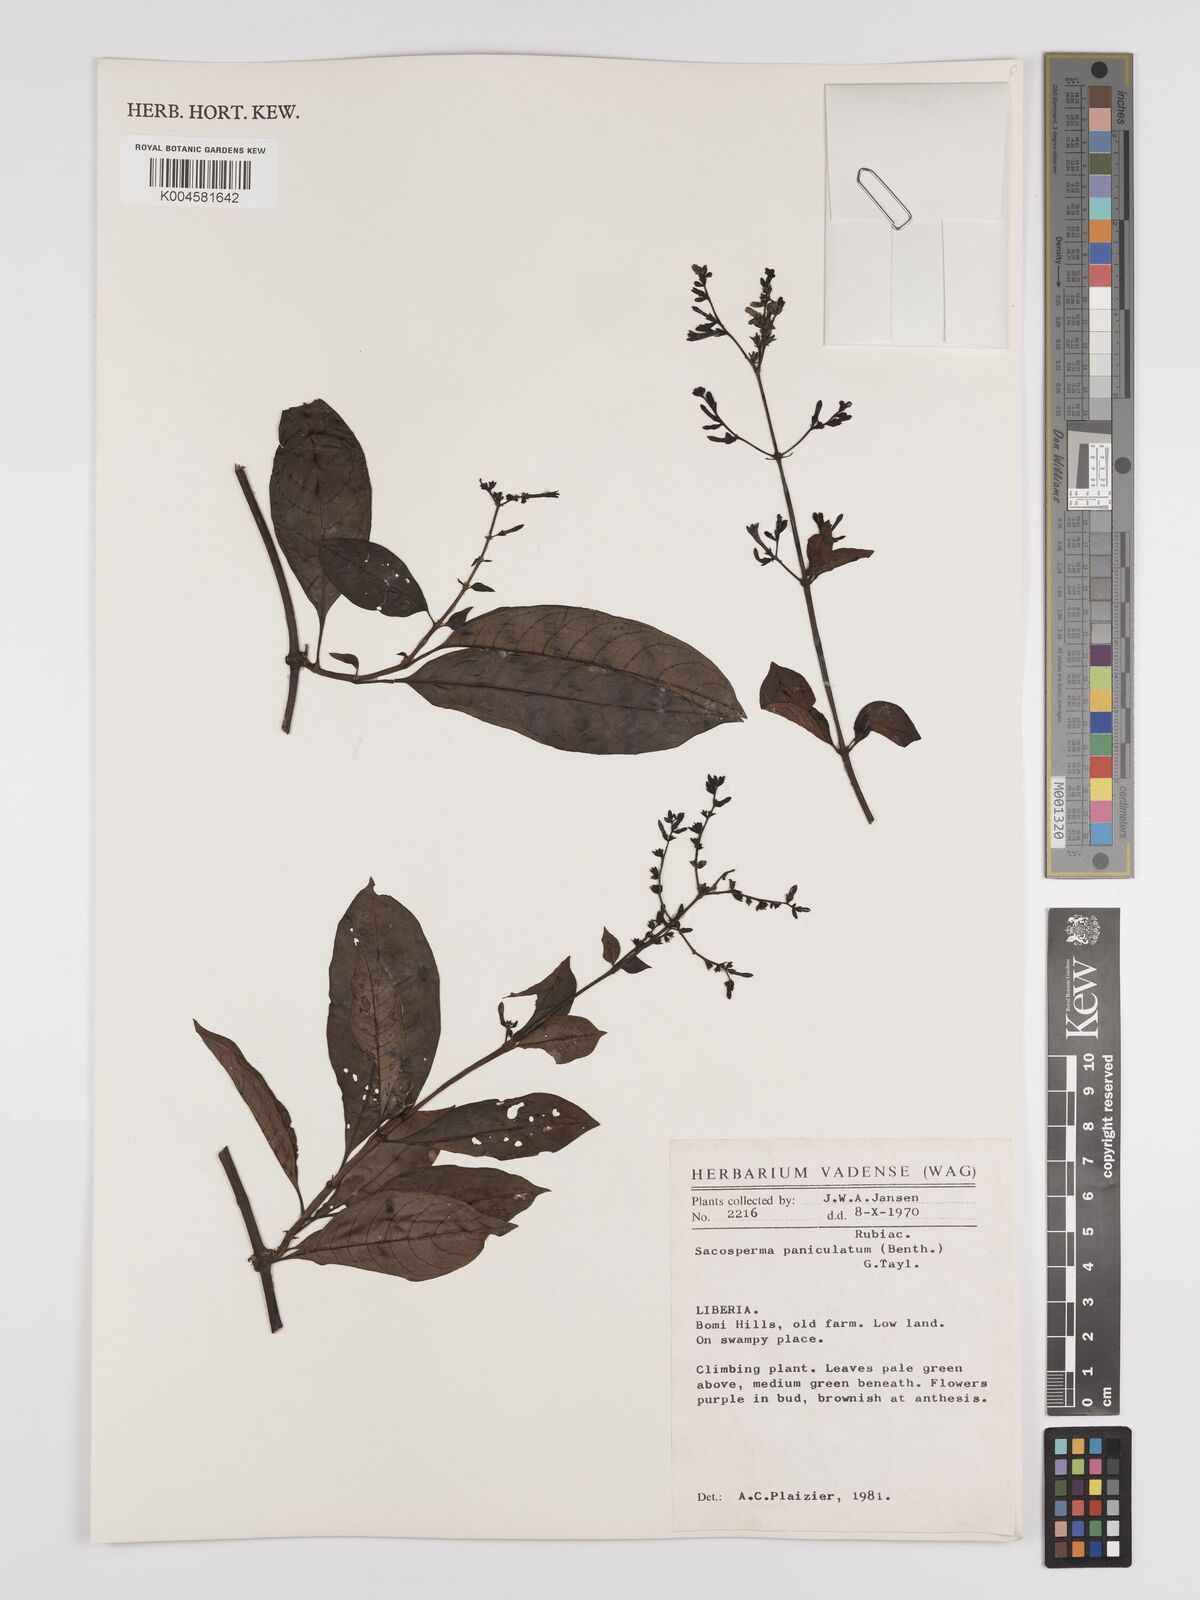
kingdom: Plantae
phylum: Tracheophyta
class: Magnoliopsida
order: Gentianales
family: Rubiaceae
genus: Sacosperma
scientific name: Sacosperma paniculatum
